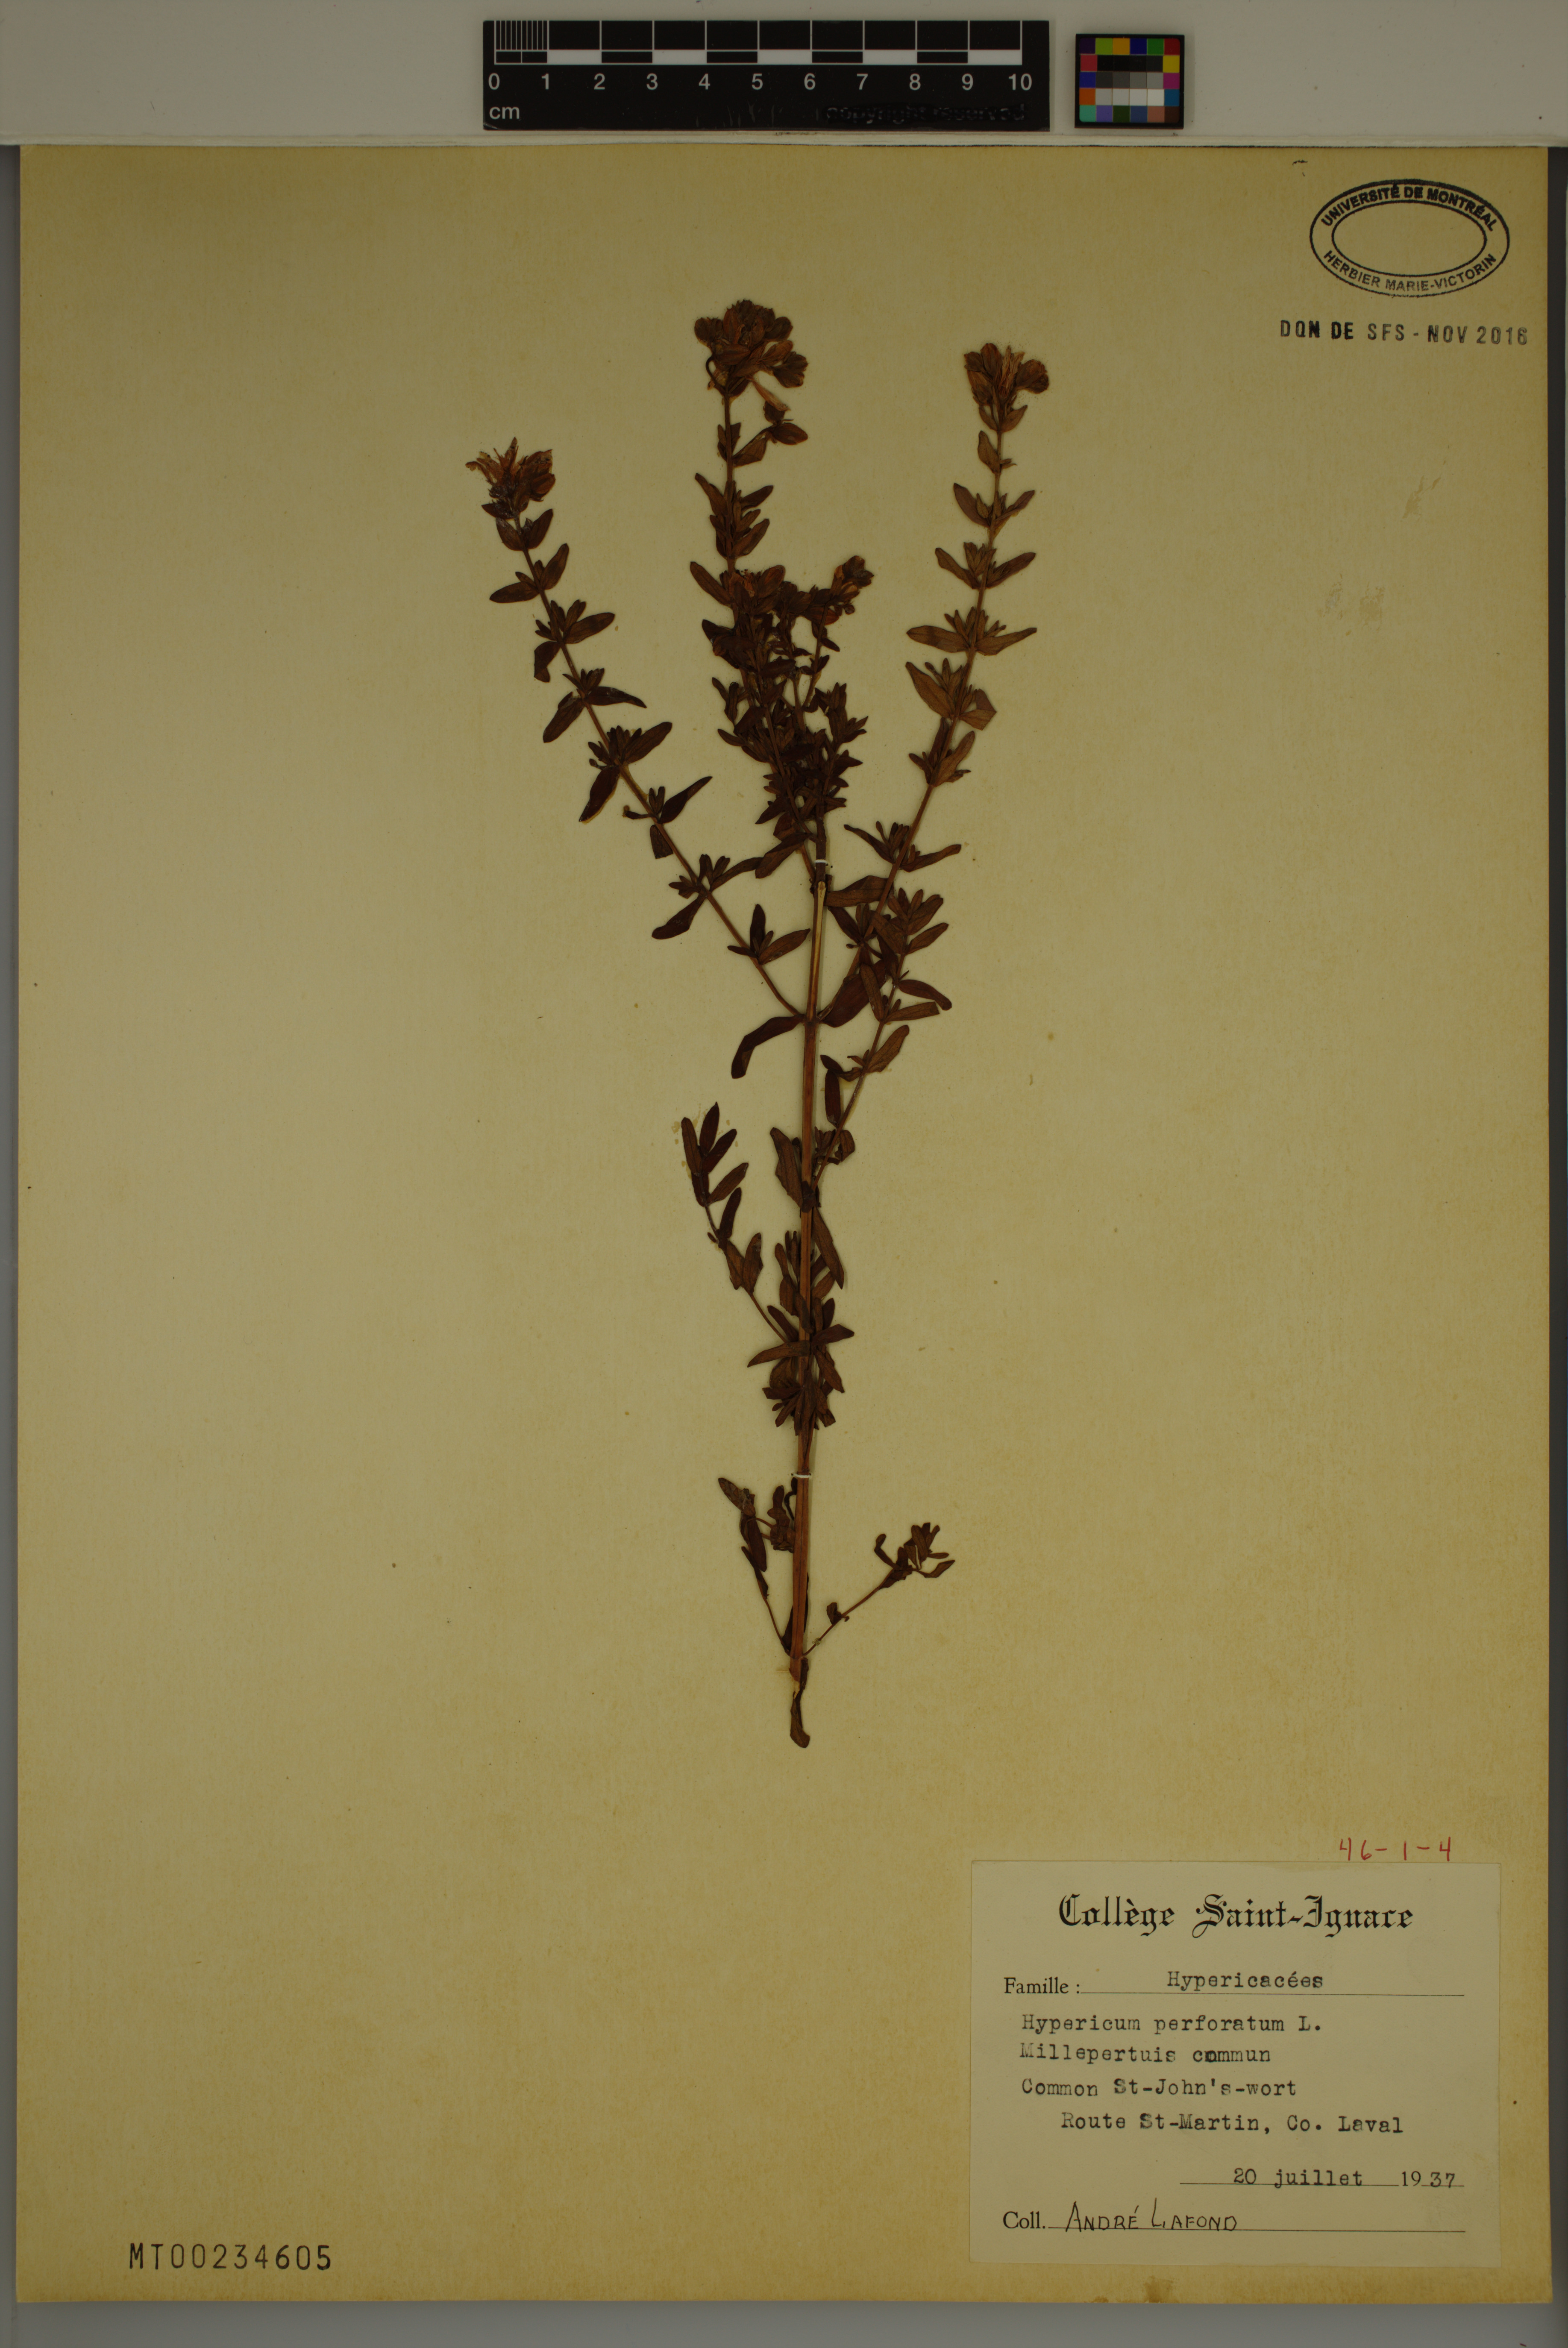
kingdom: Plantae
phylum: Tracheophyta
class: Magnoliopsida
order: Malpighiales
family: Hypericaceae
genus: Hypericum
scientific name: Hypericum perforatum
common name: Common st. johnswort
